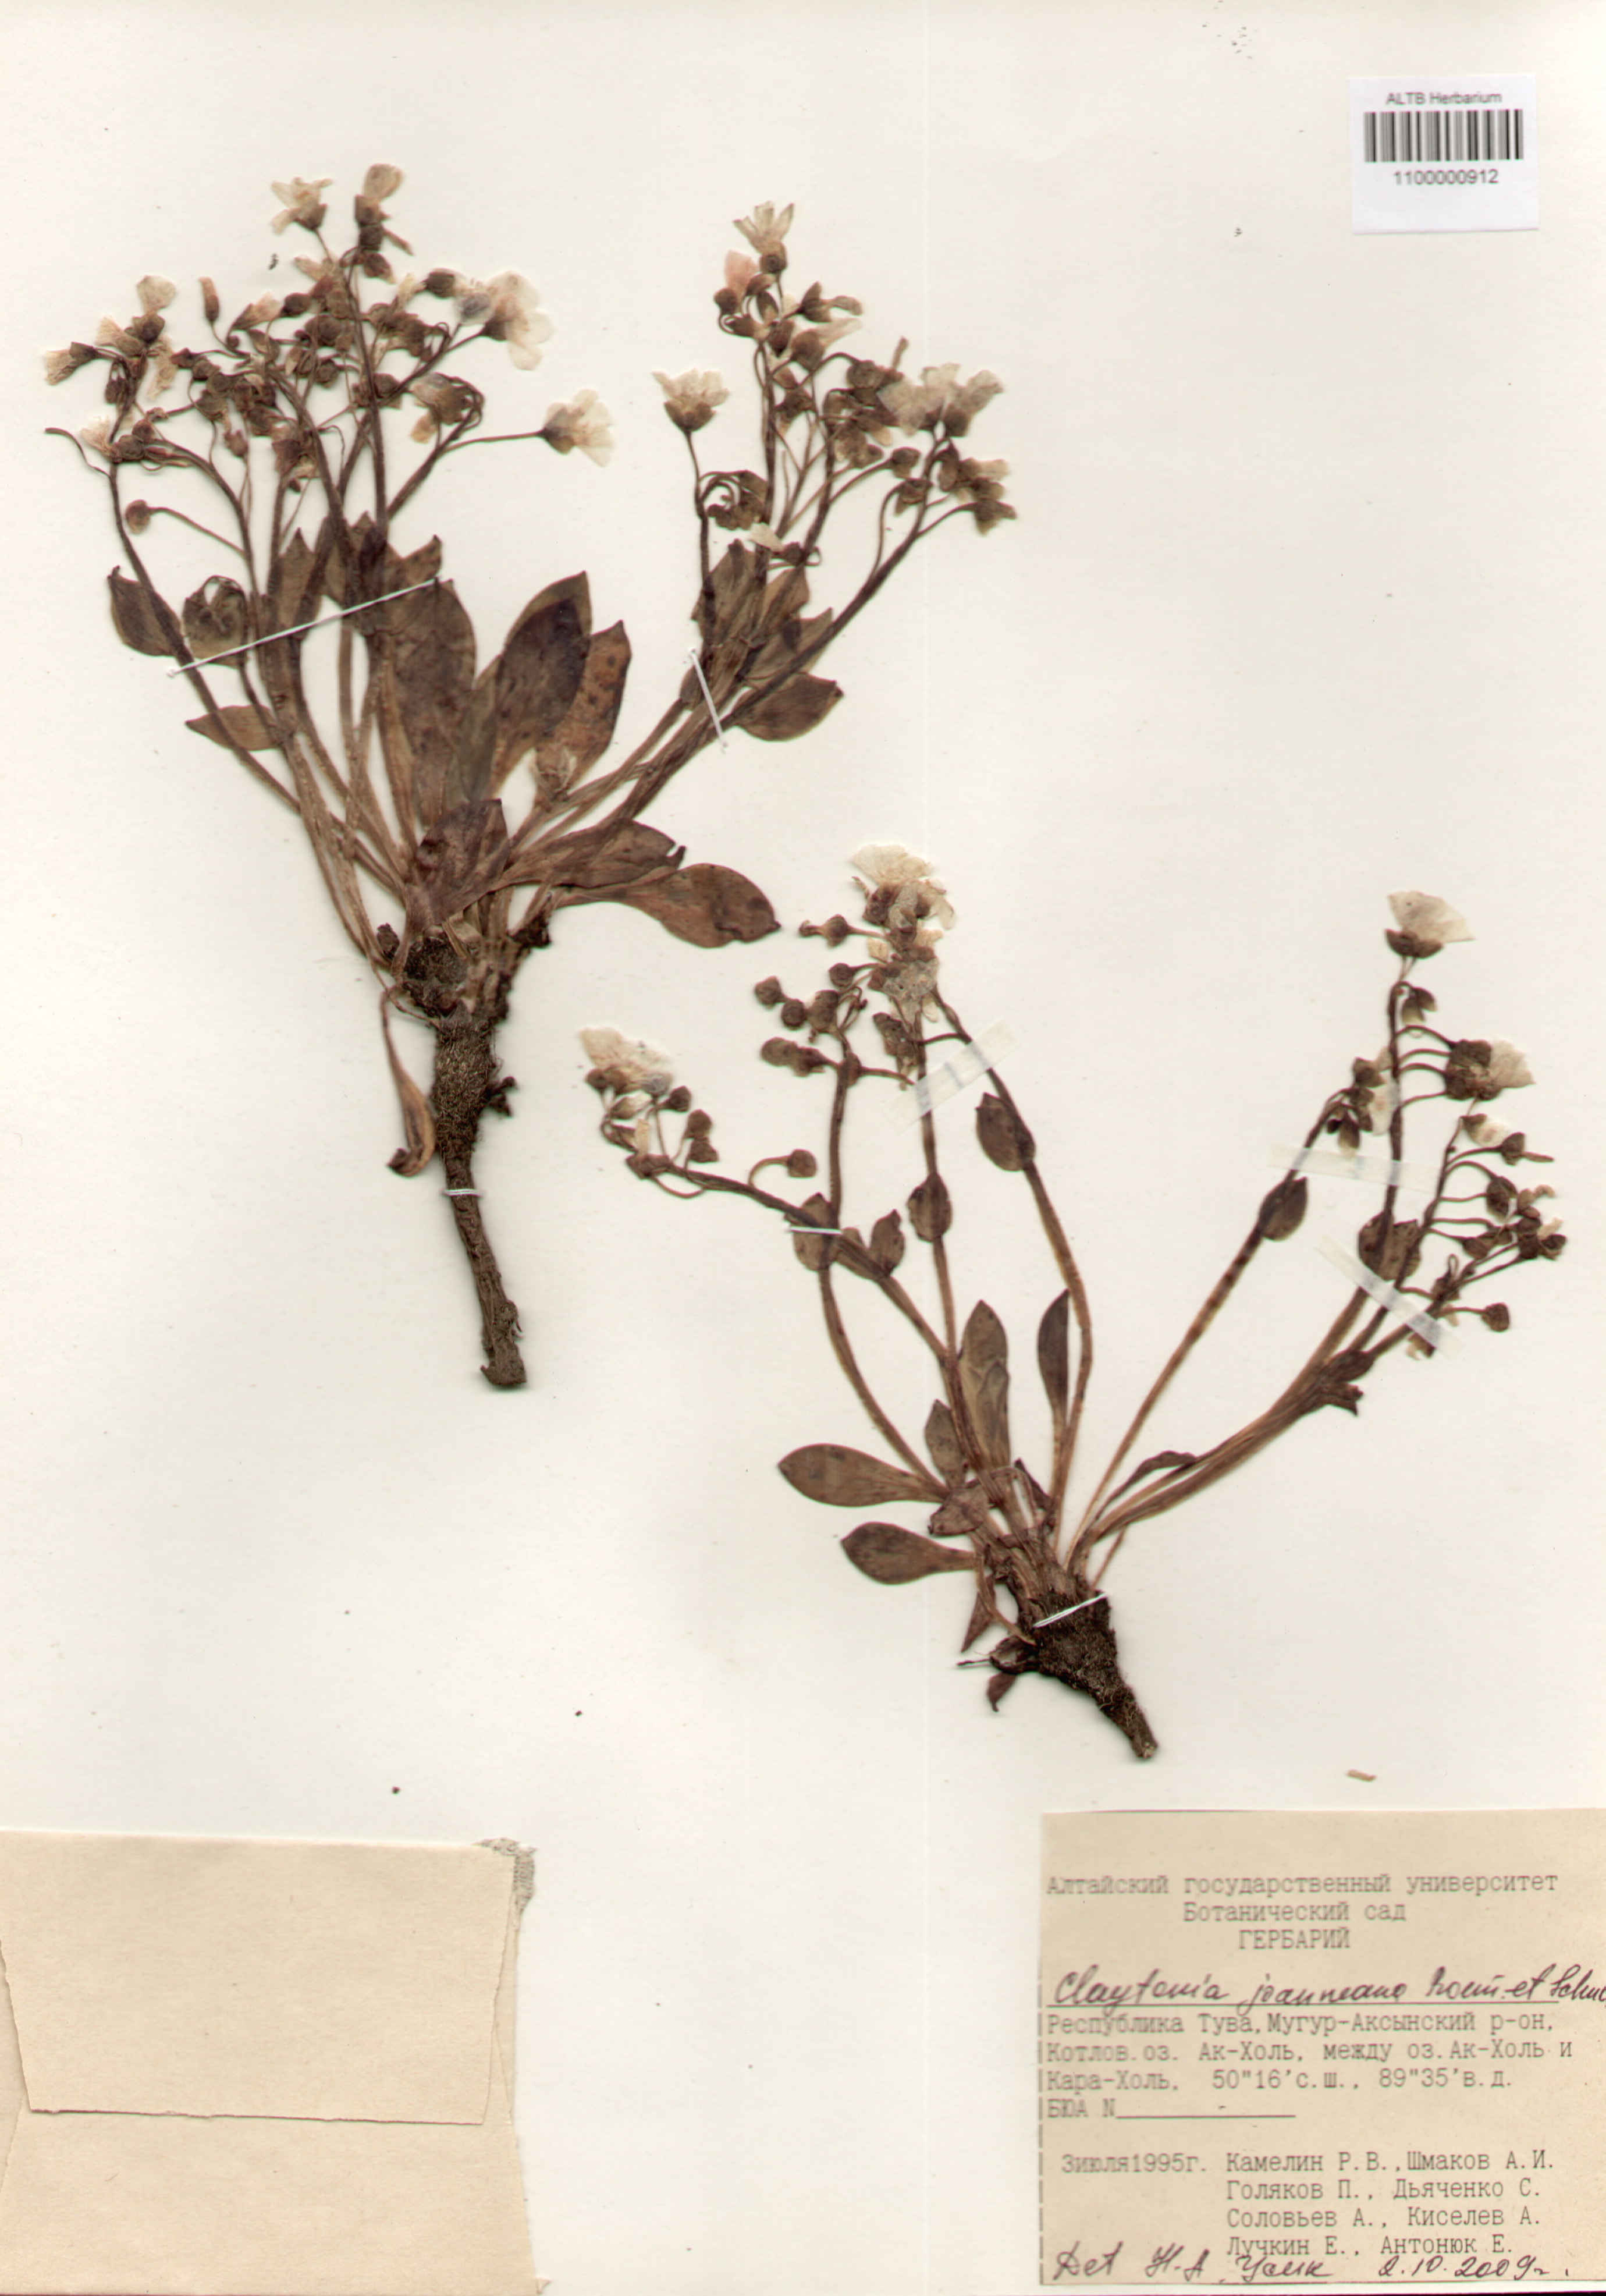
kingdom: Plantae
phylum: Tracheophyta
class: Magnoliopsida
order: Caryophyllales
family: Montiaceae
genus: Claytonia
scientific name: Claytonia joanneana
